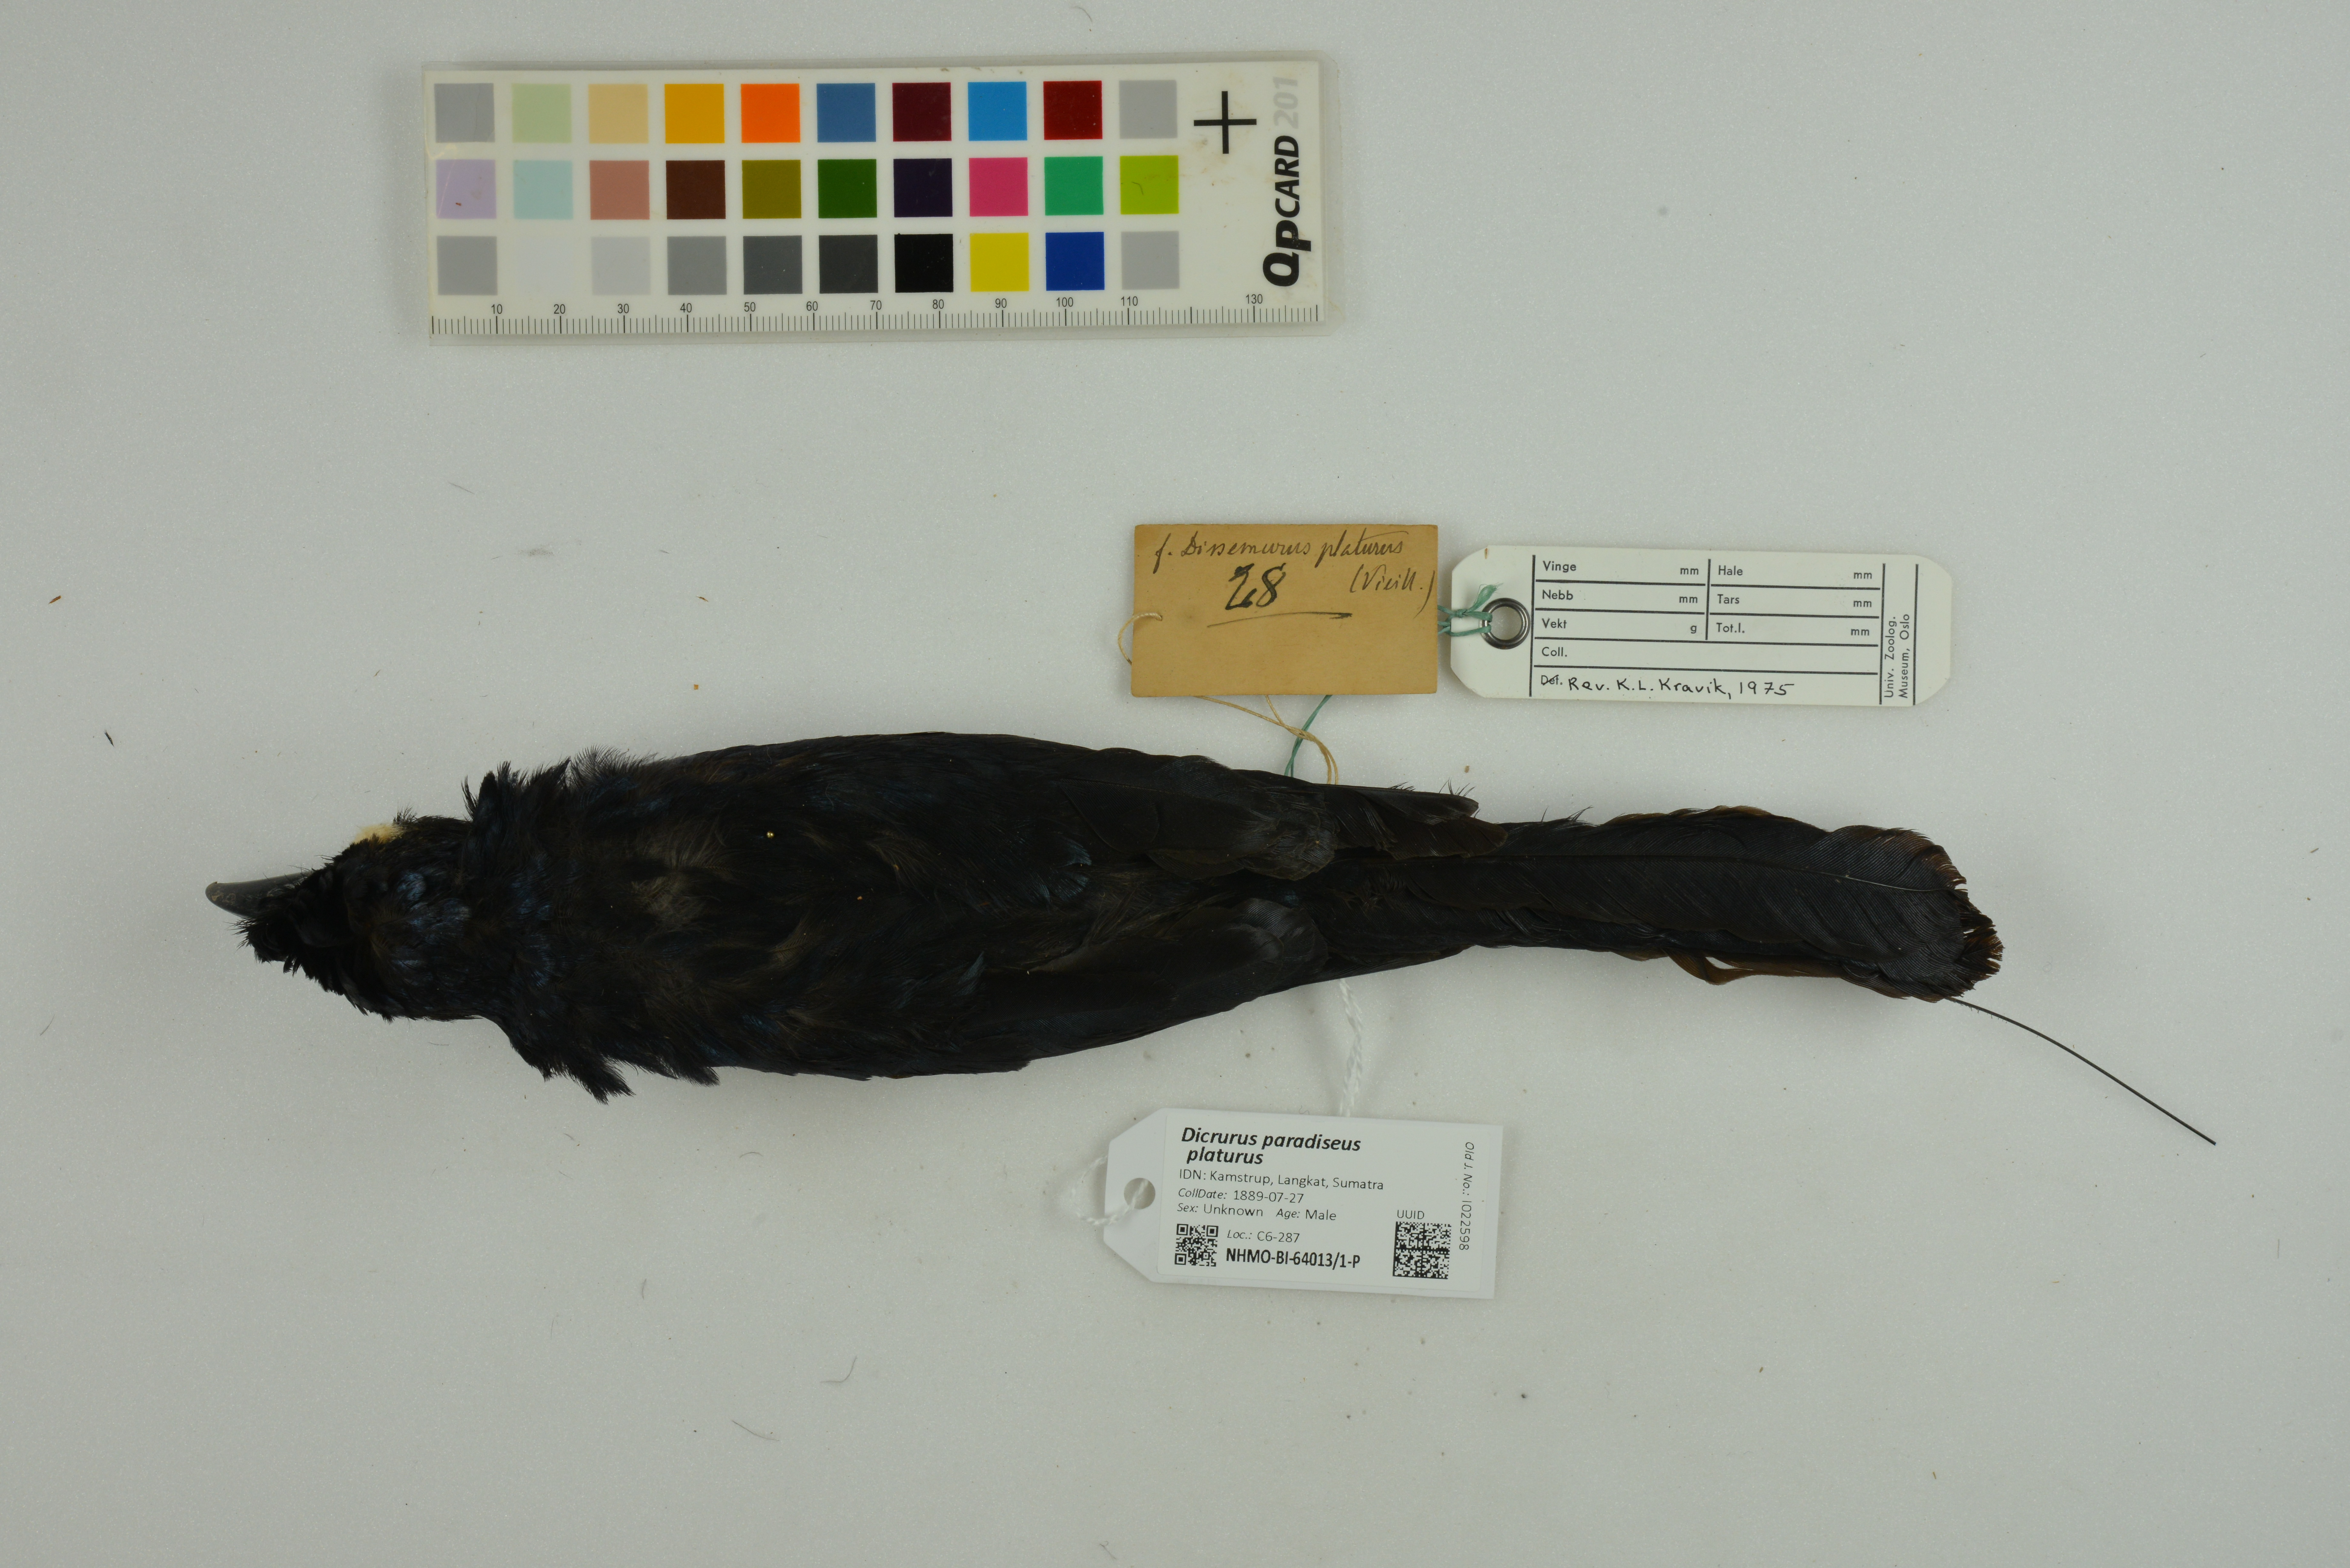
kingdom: Animalia
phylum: Chordata
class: Aves
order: Passeriformes
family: Dicruridae
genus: Dicrurus
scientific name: Dicrurus paradiseus
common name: Greater racket-tailed drongo
